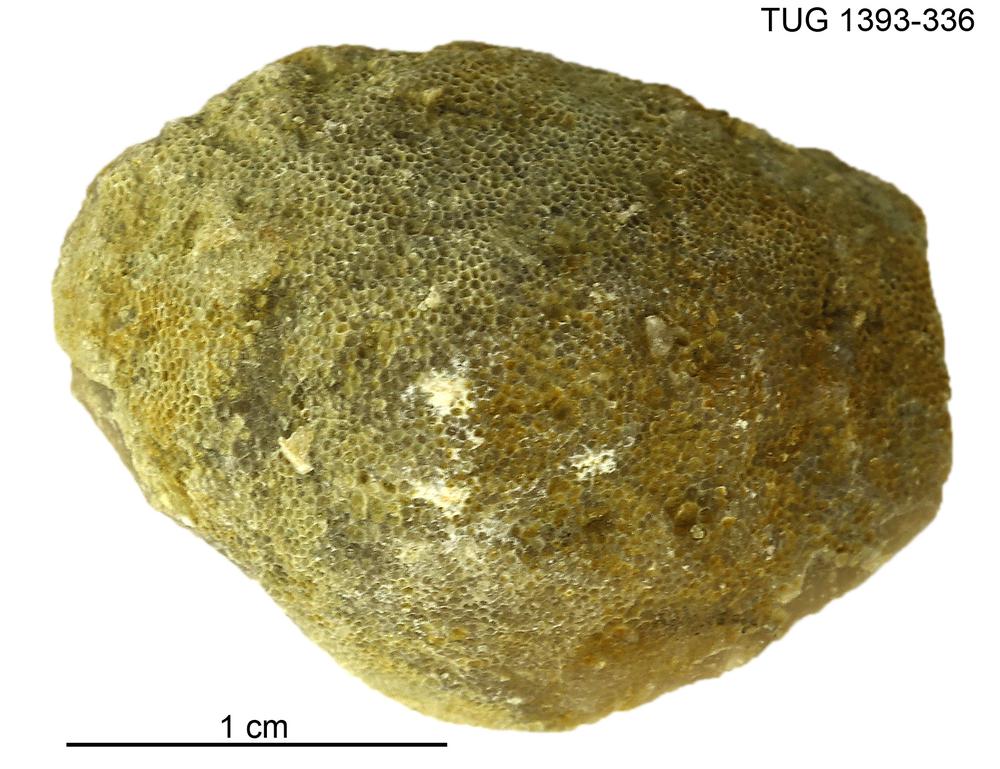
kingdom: Animalia
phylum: Bryozoa
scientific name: Bryozoa
